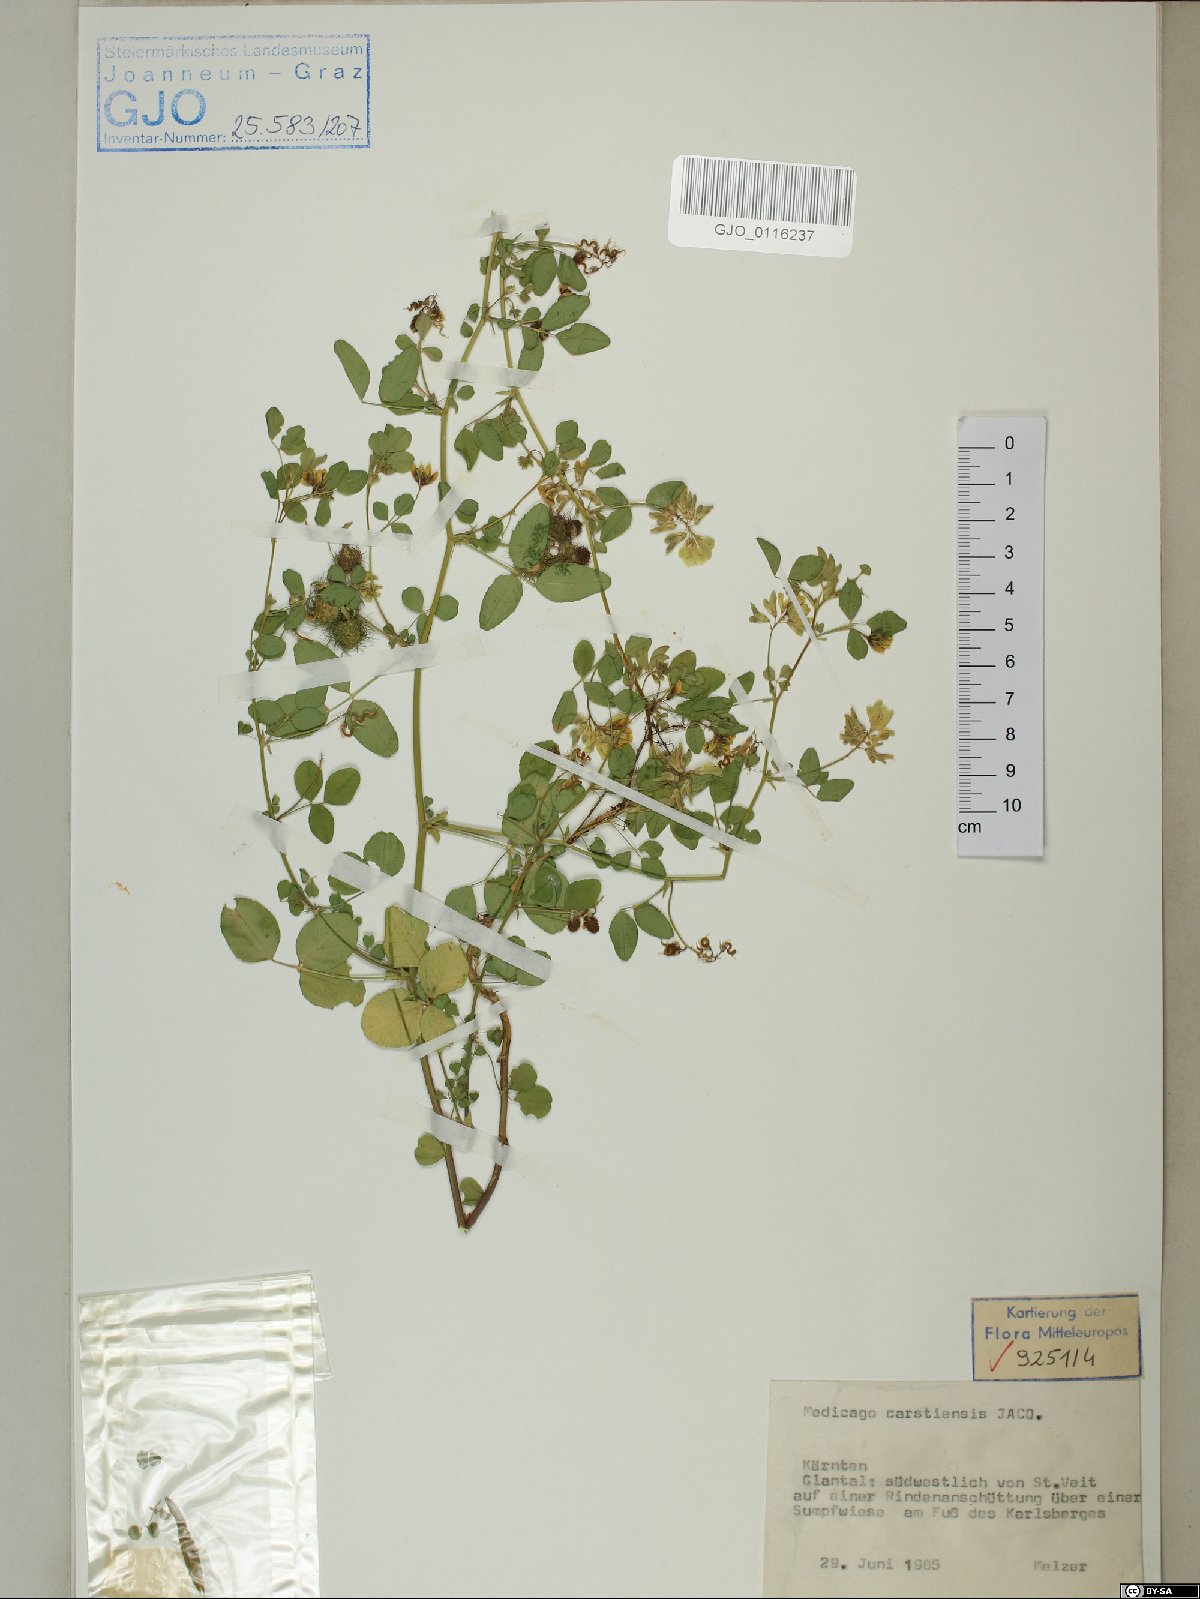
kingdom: Plantae
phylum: Tracheophyta
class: Magnoliopsida
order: Fabales
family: Fabaceae
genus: Medicago
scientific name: Medicago carstiensis
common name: Creeping-rooted medic
